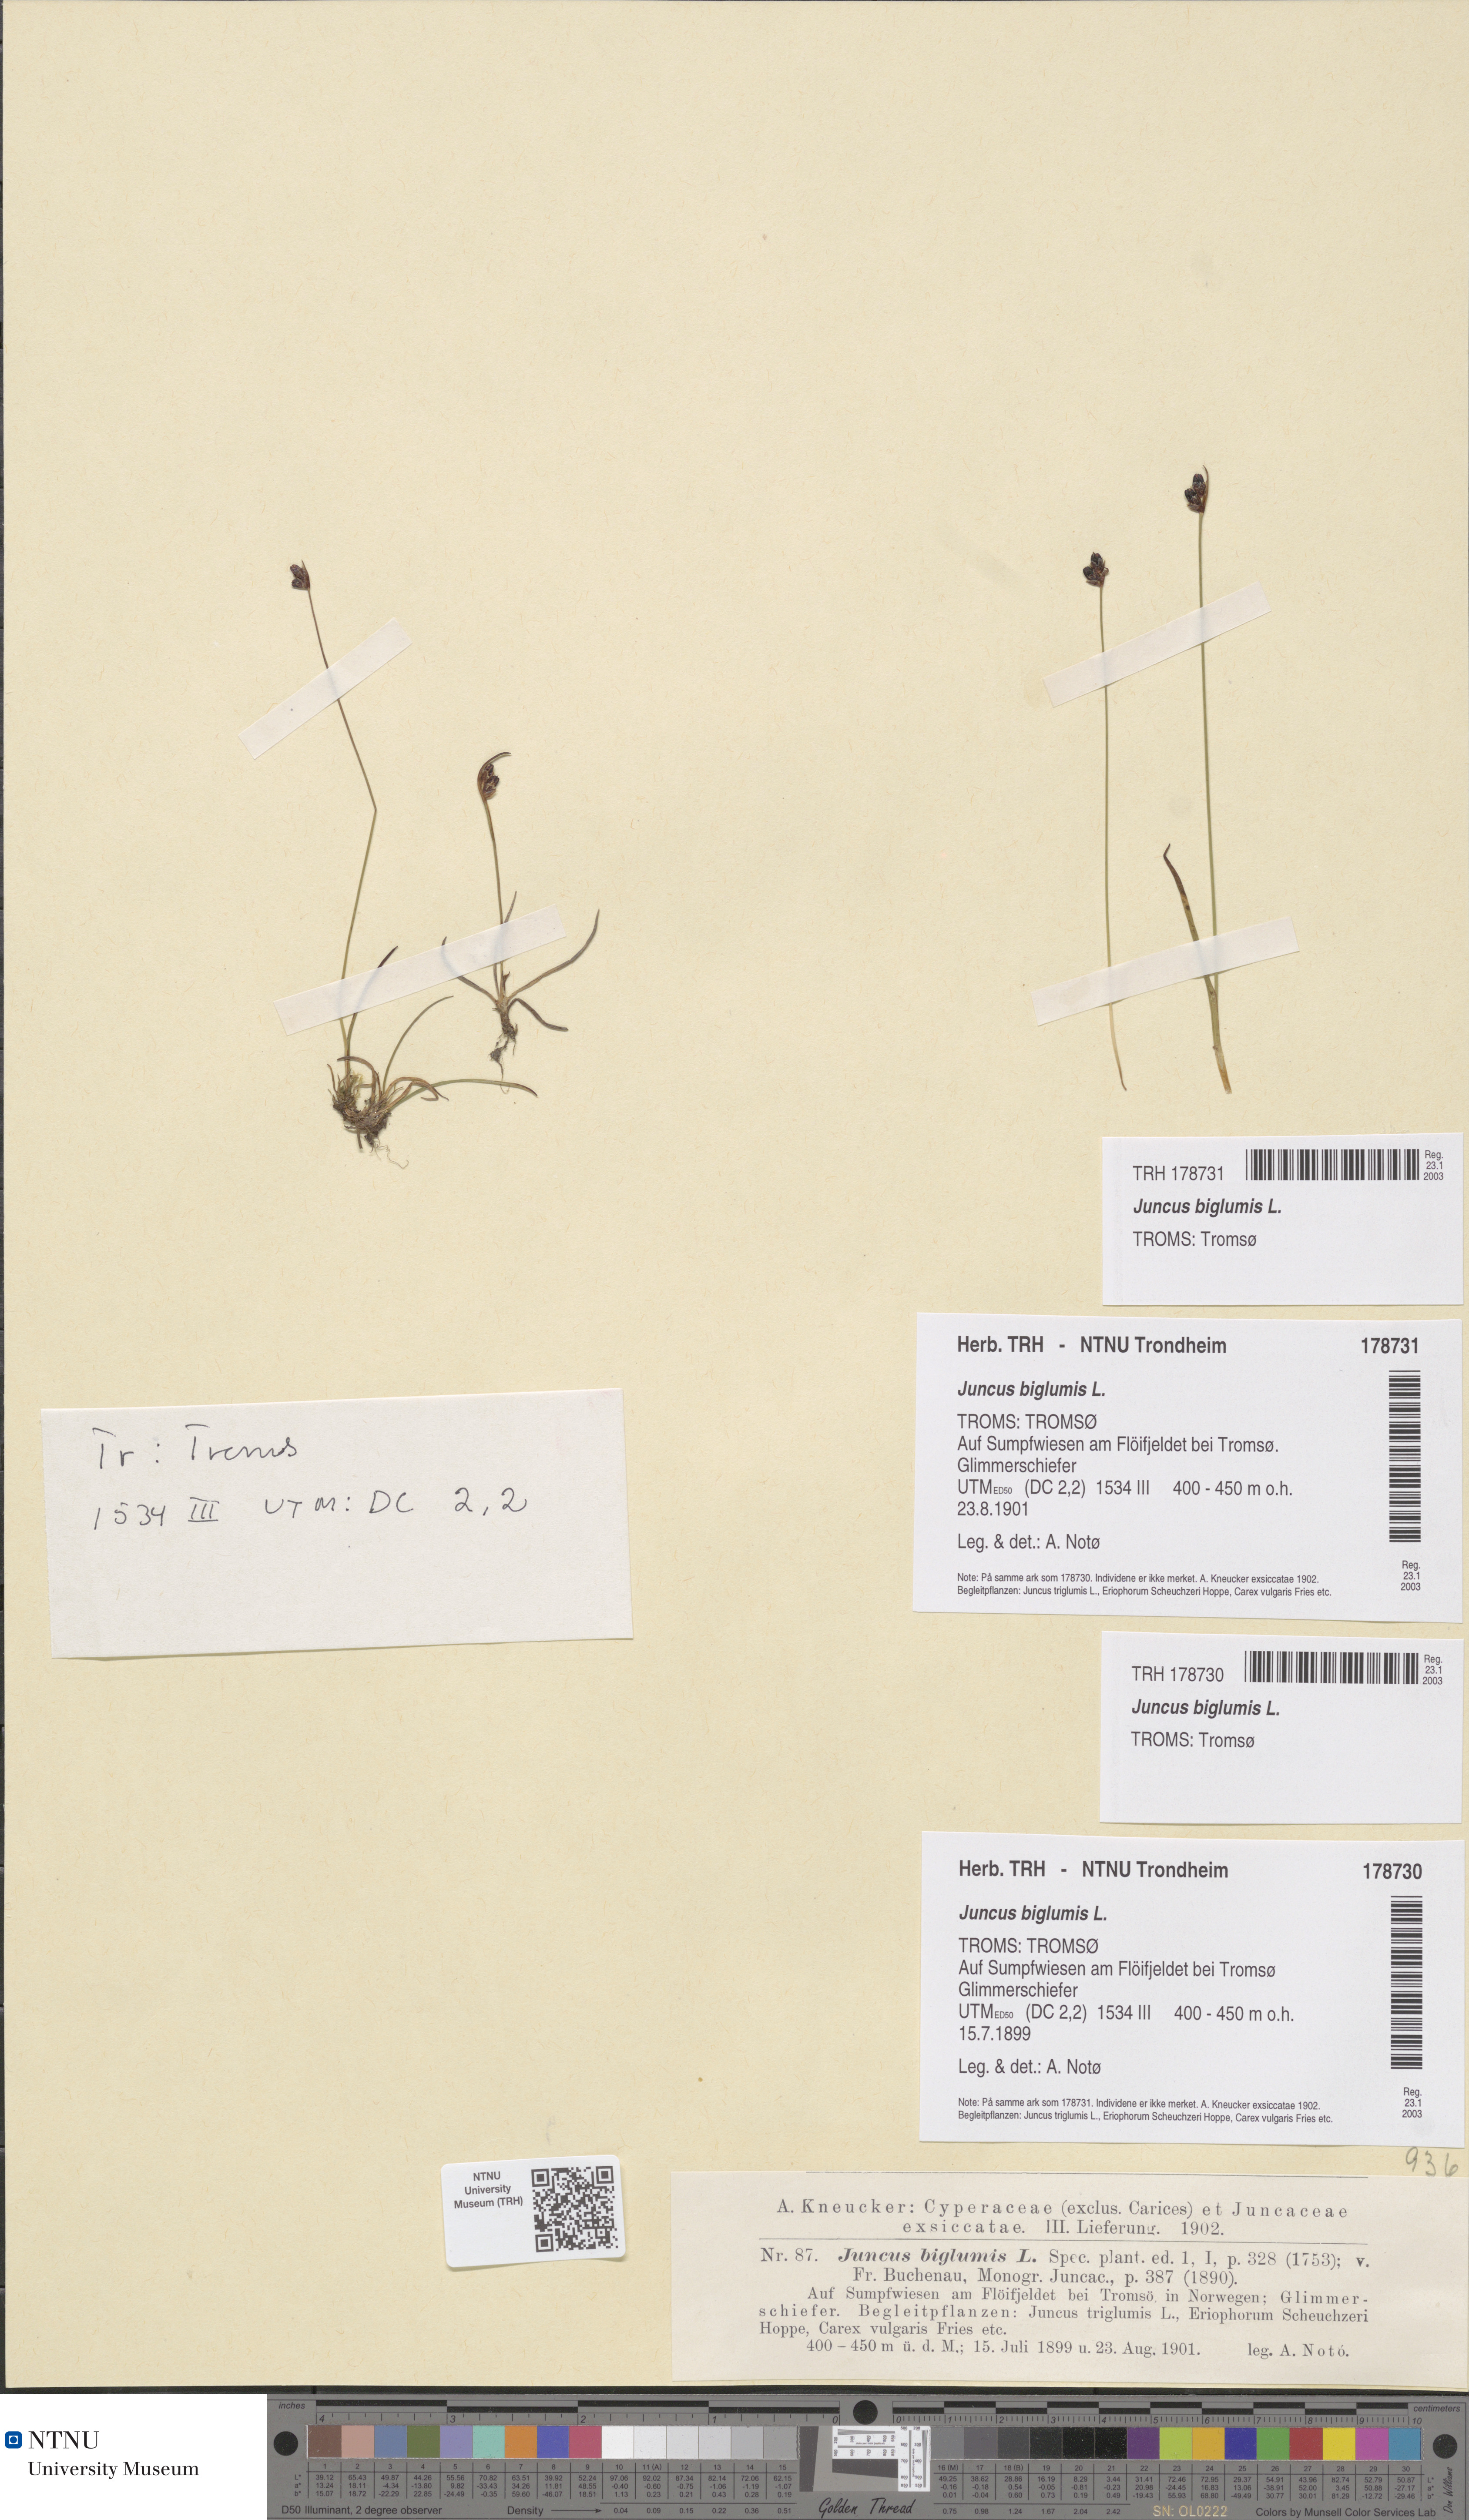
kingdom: Plantae
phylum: Tracheophyta
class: Liliopsida
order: Poales
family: Juncaceae
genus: Juncus
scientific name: Juncus biglumis
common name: Two-flowered rush
